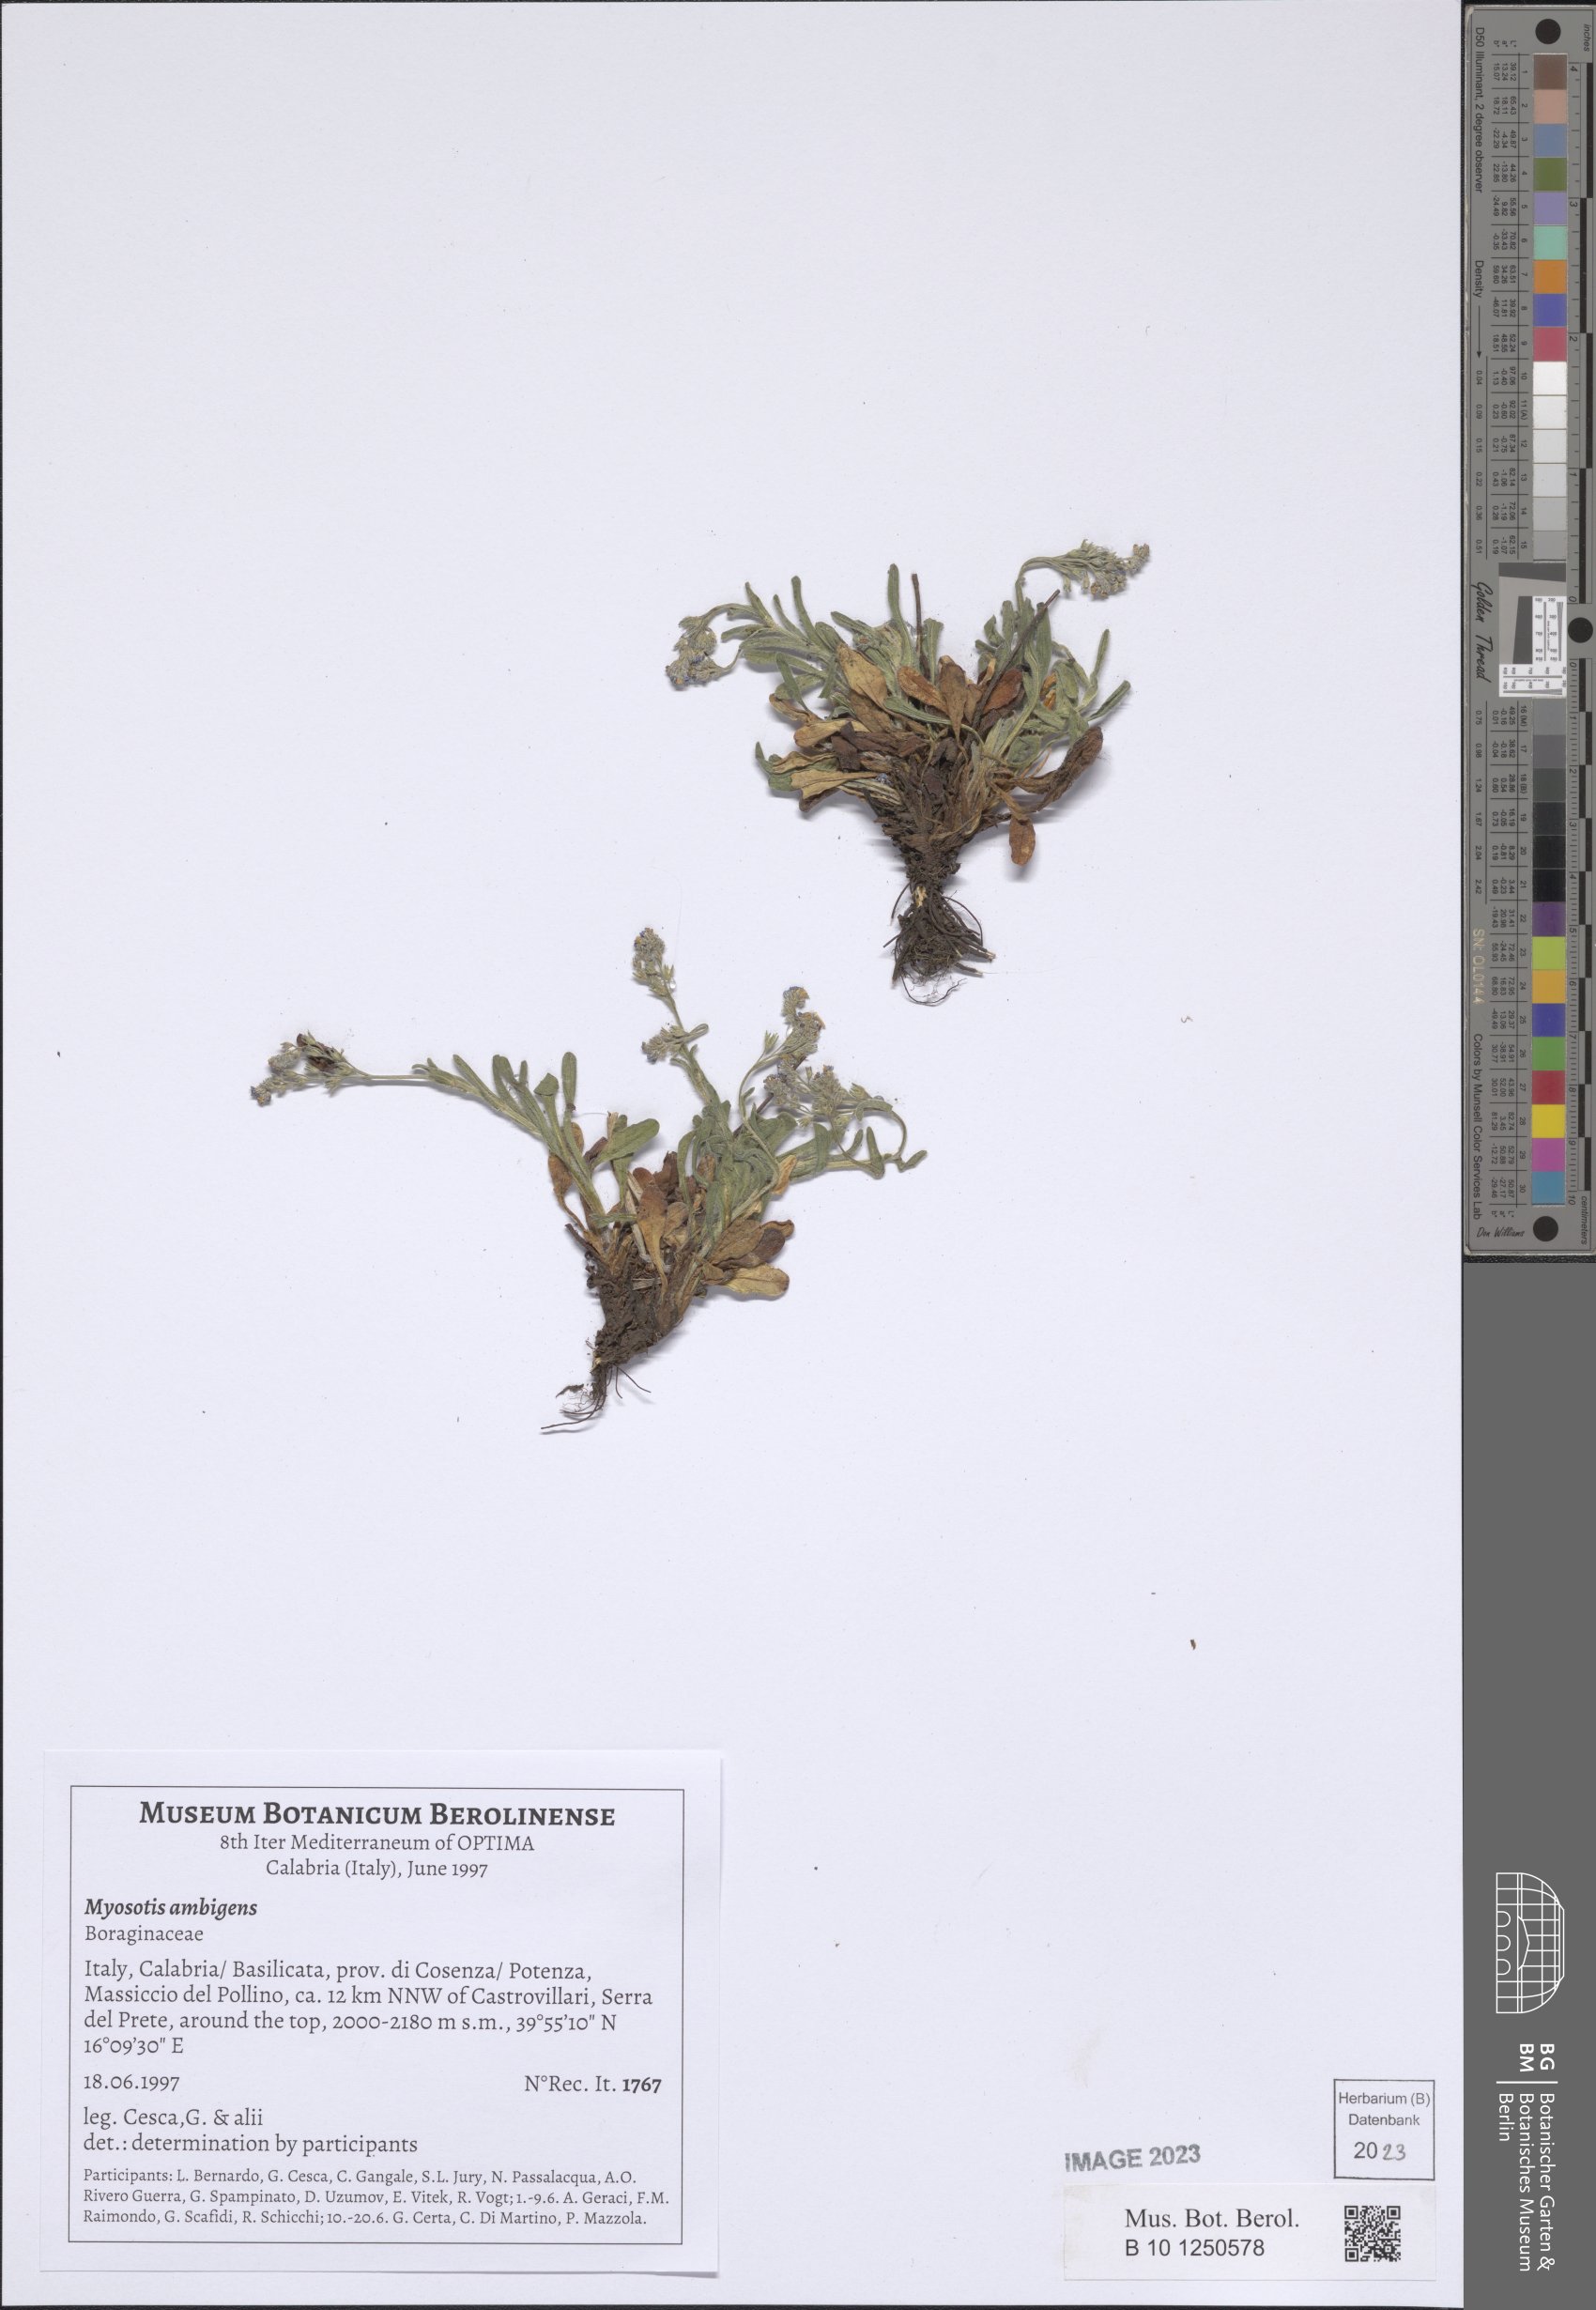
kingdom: Plantae
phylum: Tracheophyta
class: Magnoliopsida
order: Boraginales
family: Boraginaceae
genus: Myosotis
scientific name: Myosotis ambigens
